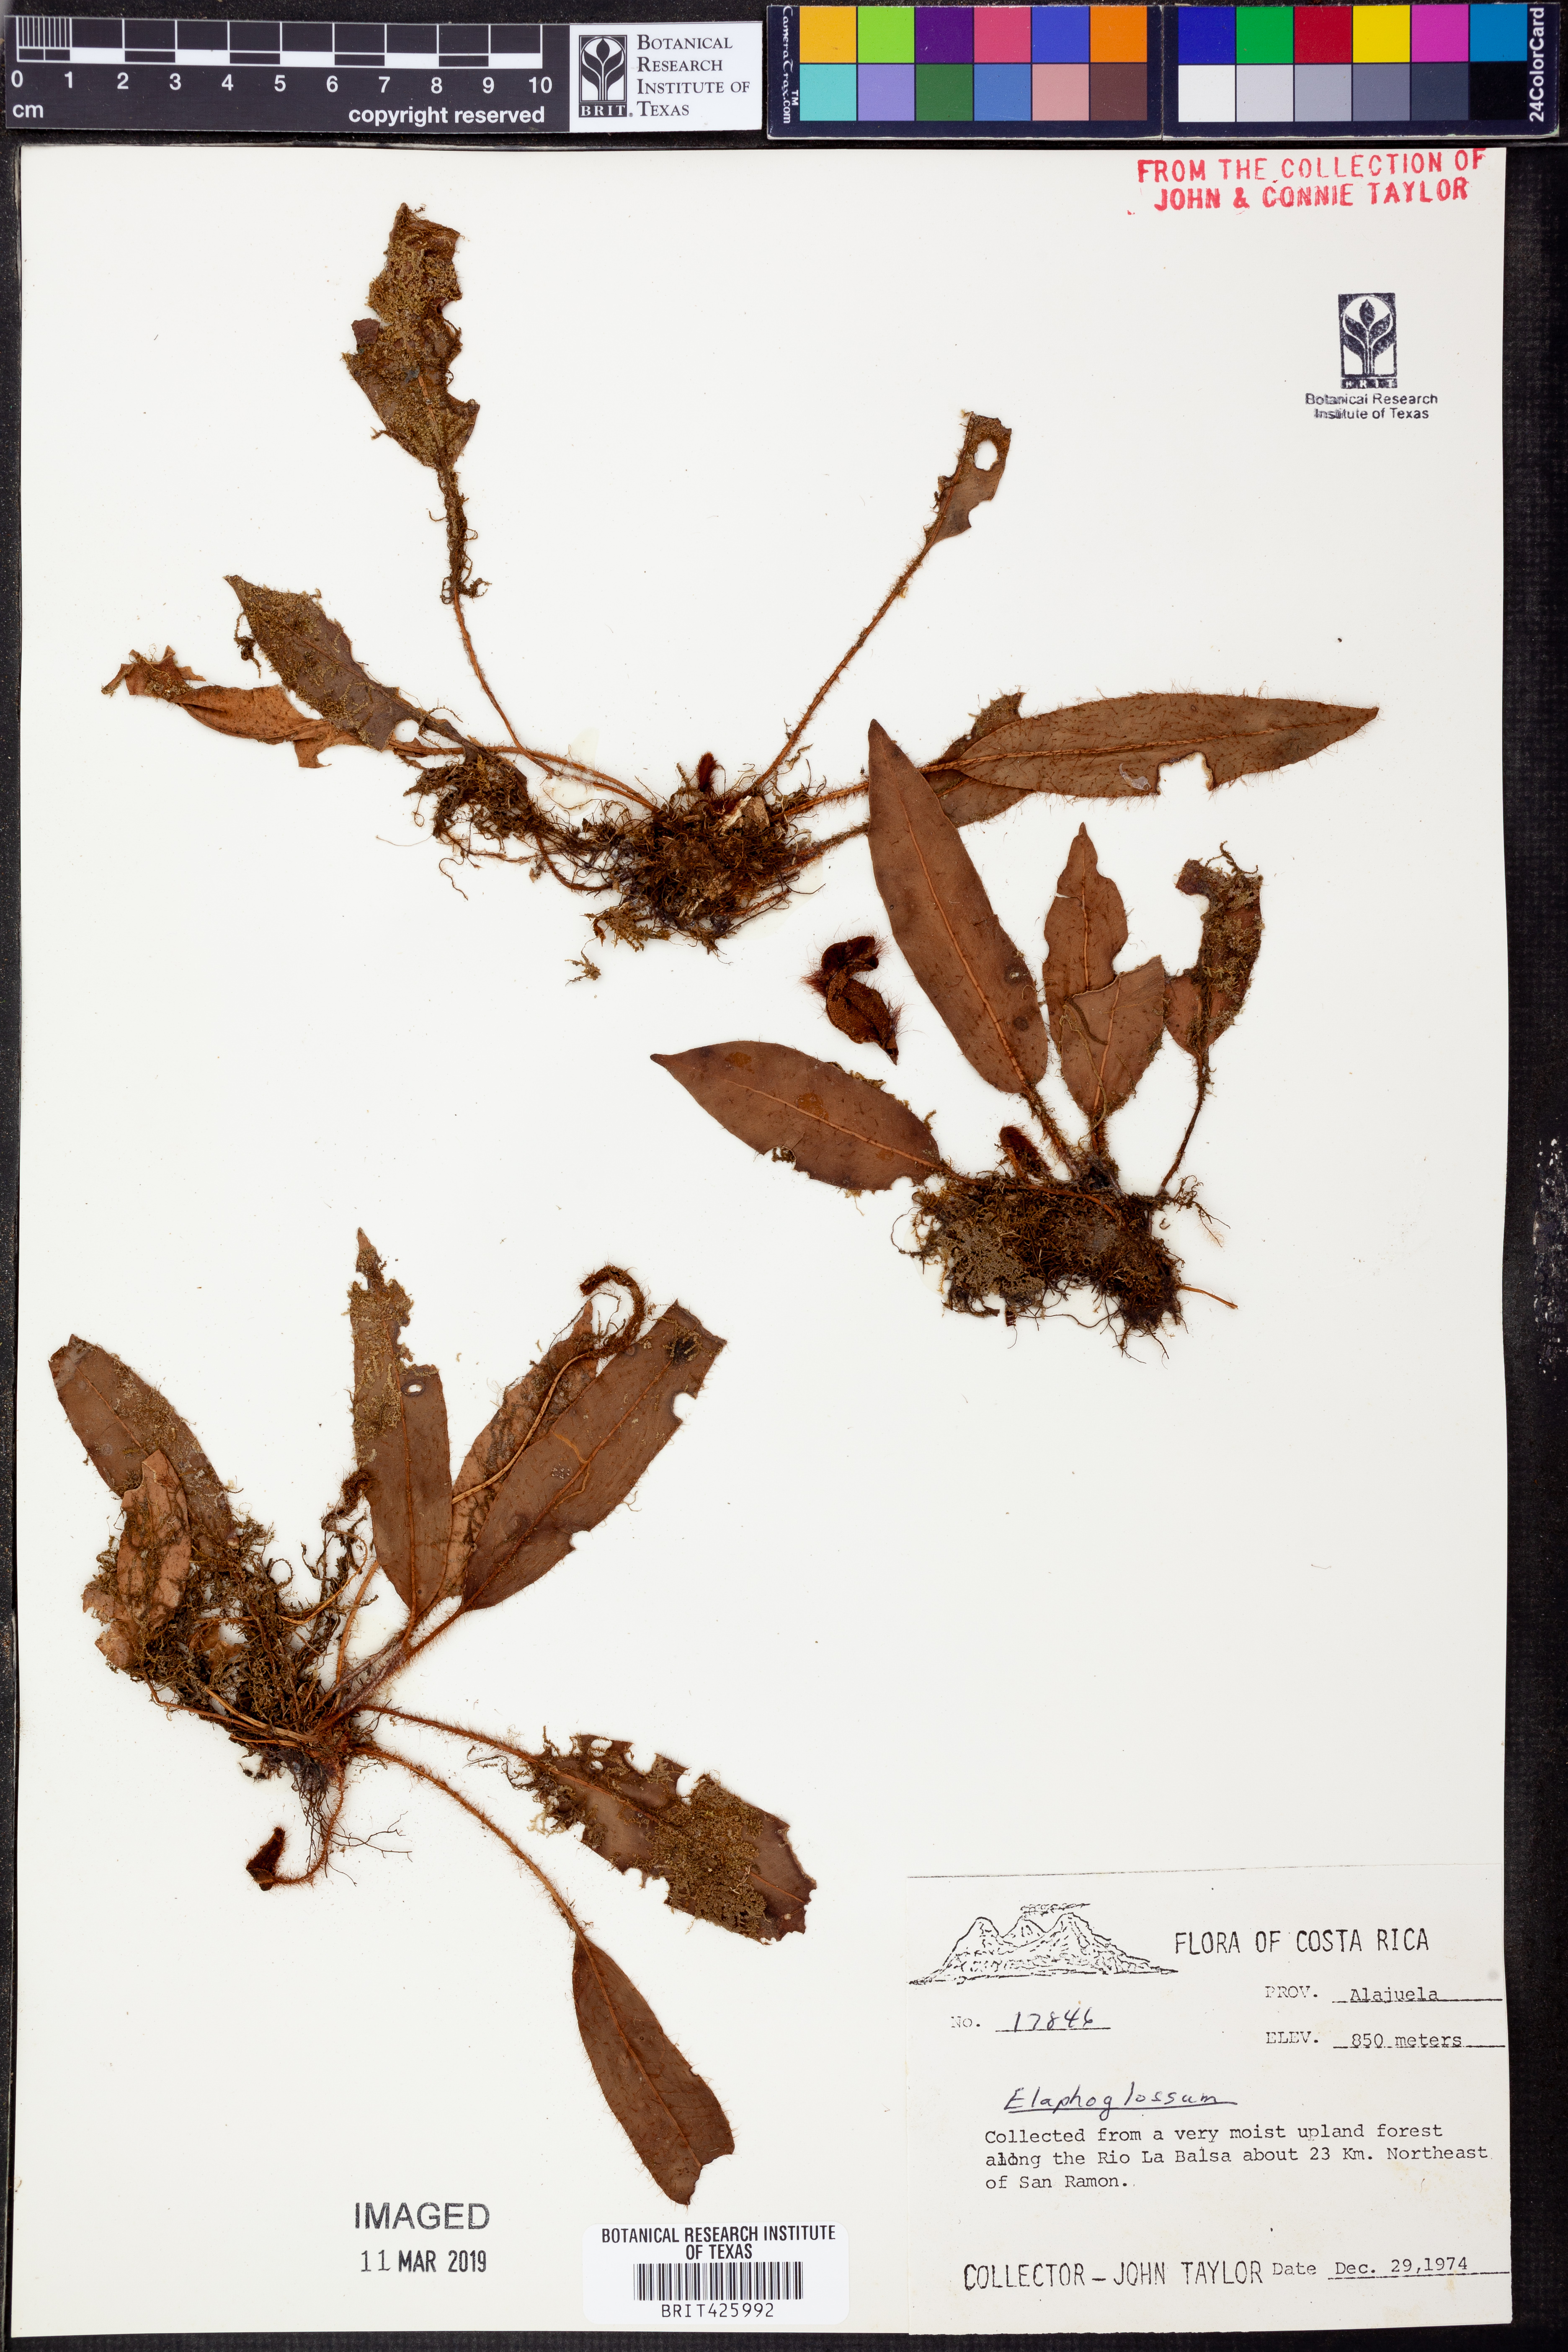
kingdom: Plantae
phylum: Tracheophyta
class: Polypodiopsida
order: Polypodiales
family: Dryopteridaceae
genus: Elaphoglossum
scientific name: Elaphoglossum
